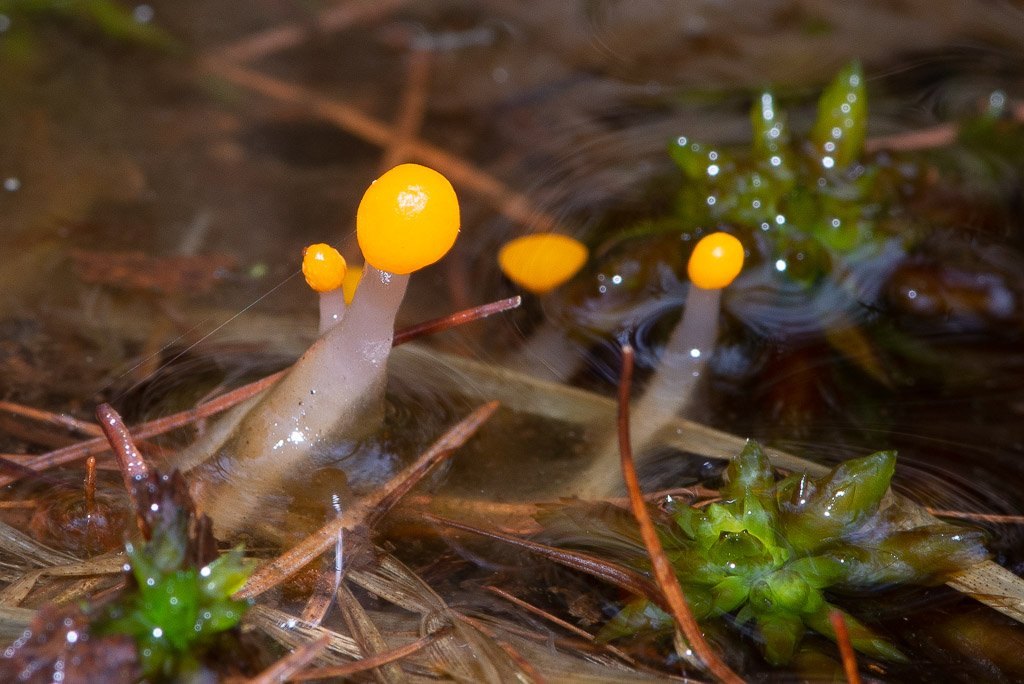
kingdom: Fungi
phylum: Ascomycota
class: Leotiomycetes
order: Helotiales
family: Cenangiaceae
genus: Mitrula
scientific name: Mitrula paludosa
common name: gul nøkketunge
